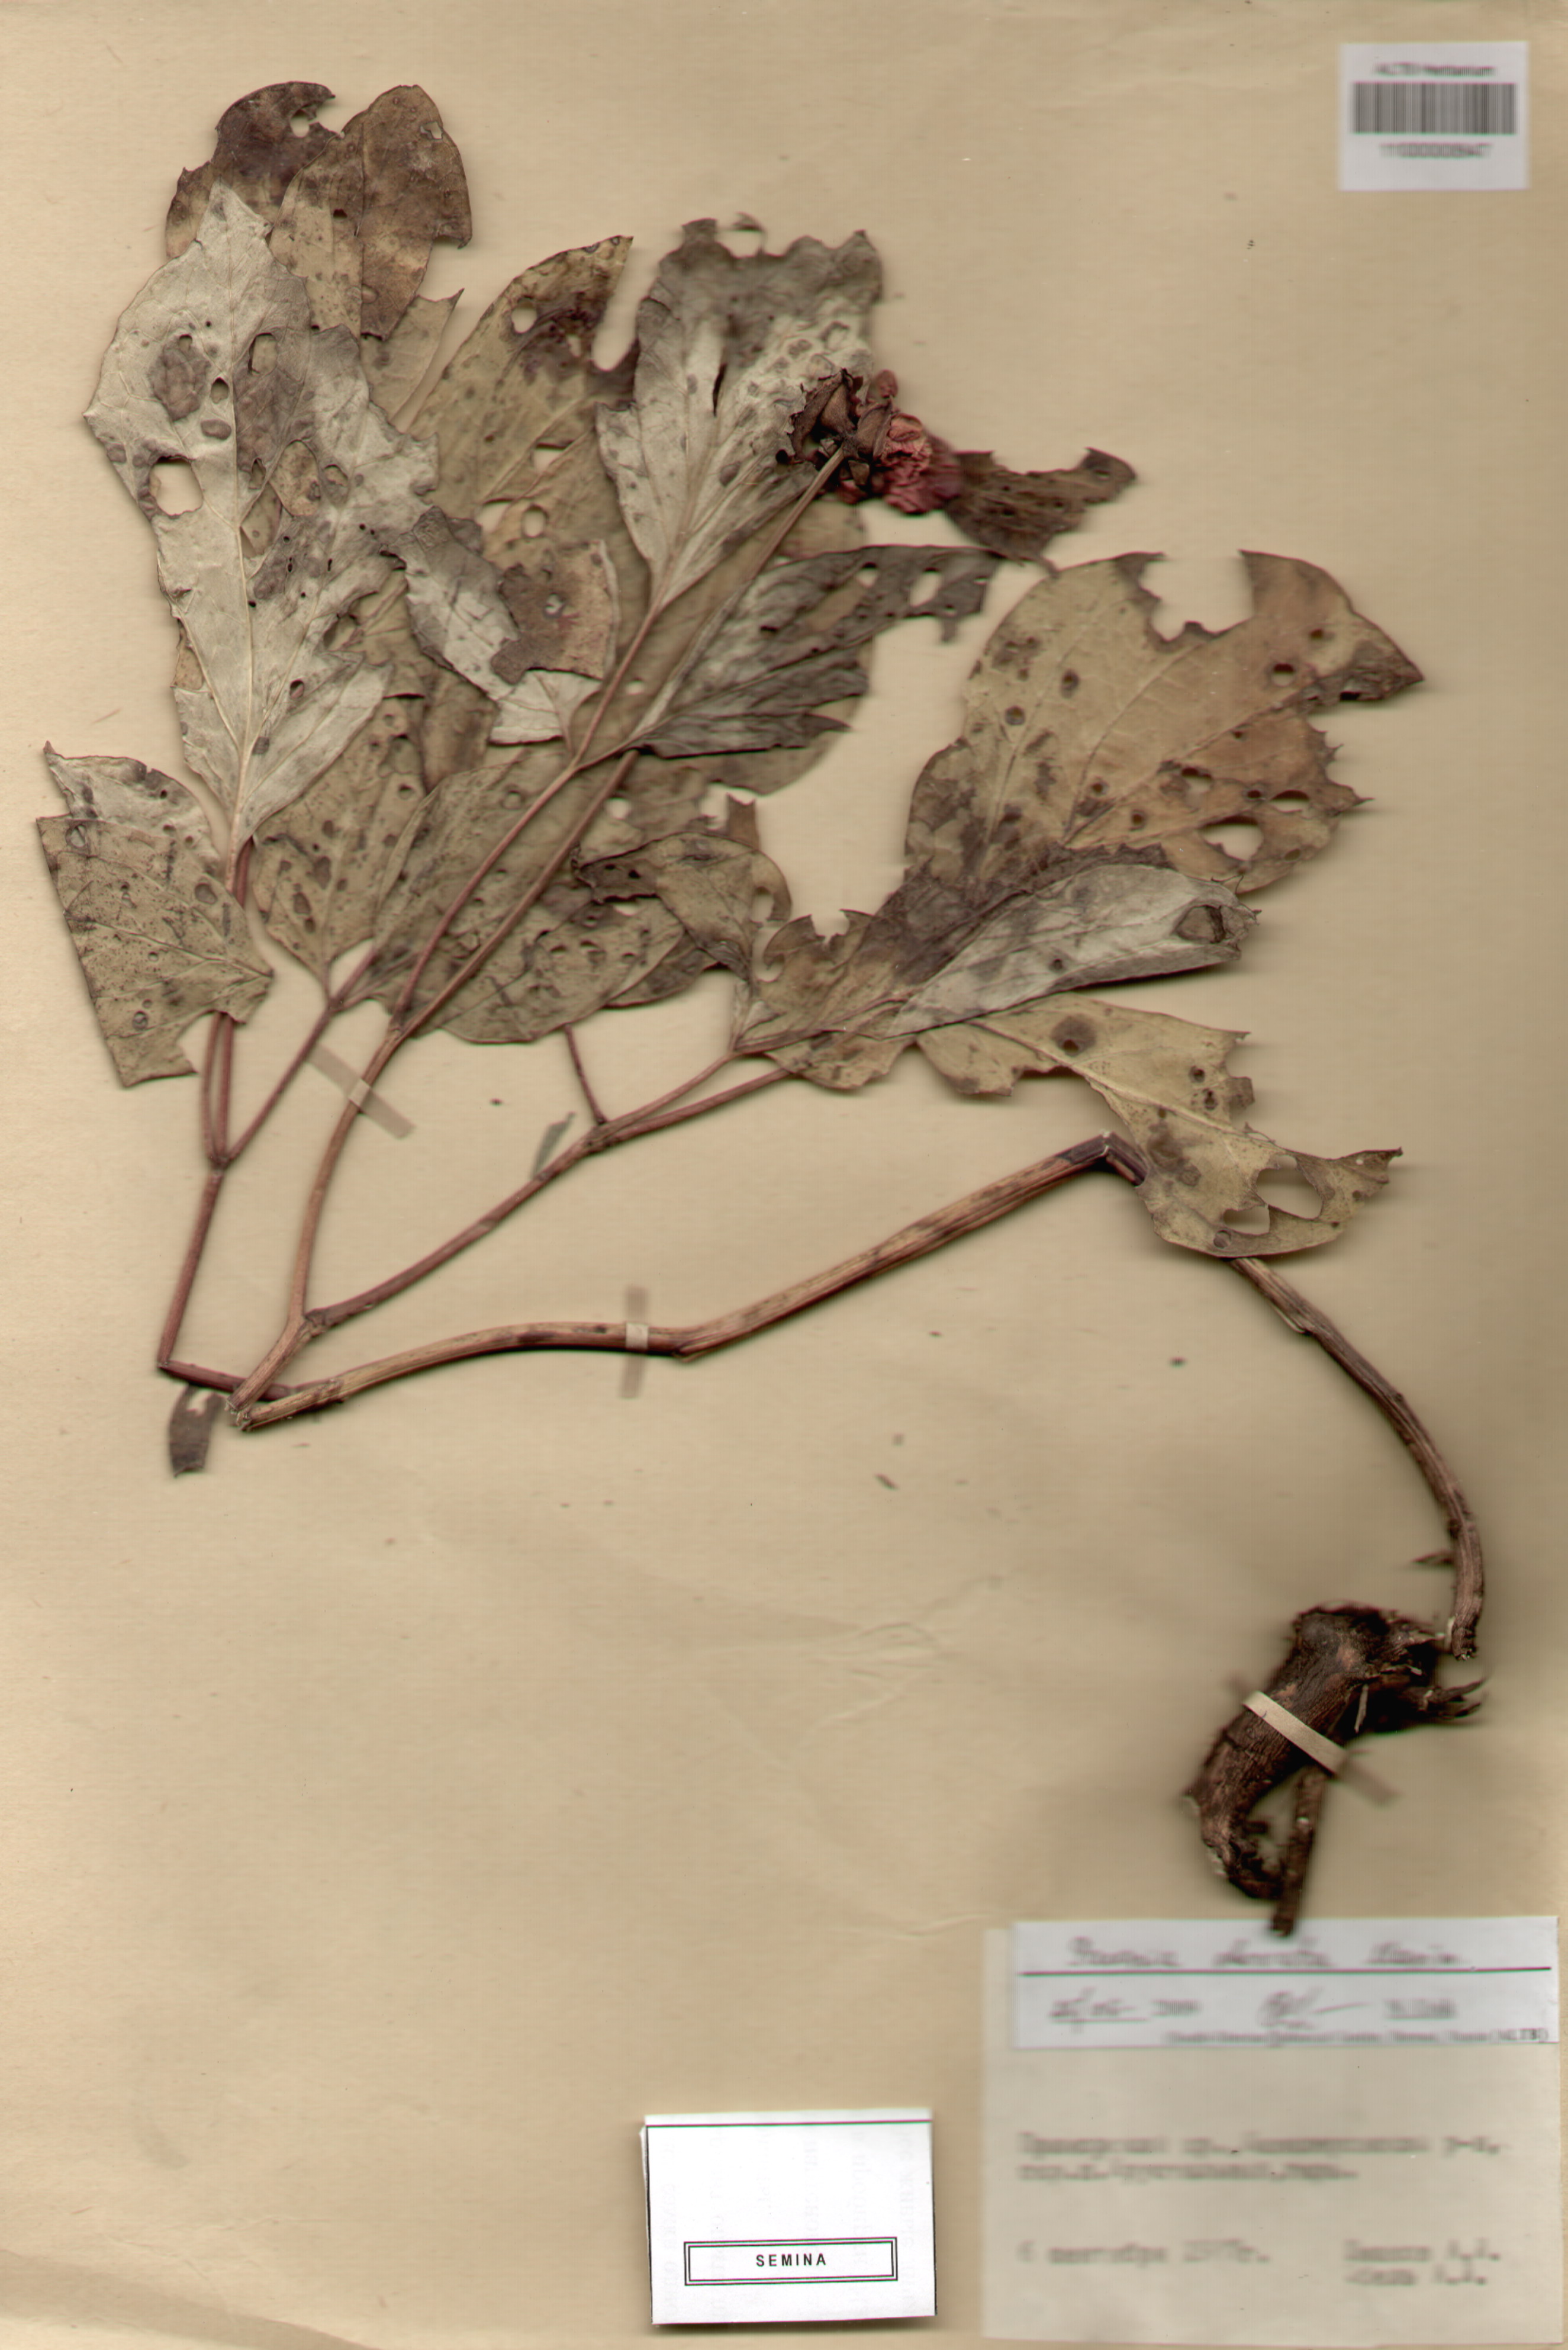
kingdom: Plantae
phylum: Tracheophyta
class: Magnoliopsida
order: Saxifragales
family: Paeoniaceae
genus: Paeonia
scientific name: Paeonia obovata
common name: Chinese peony
